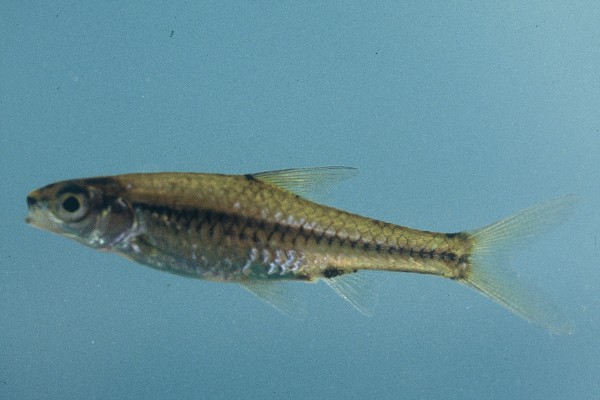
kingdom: Animalia
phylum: Chordata
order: Cypriniformes
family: Cyprinidae
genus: Enteromius
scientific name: Enteromius barnardi
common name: Blackback barb
